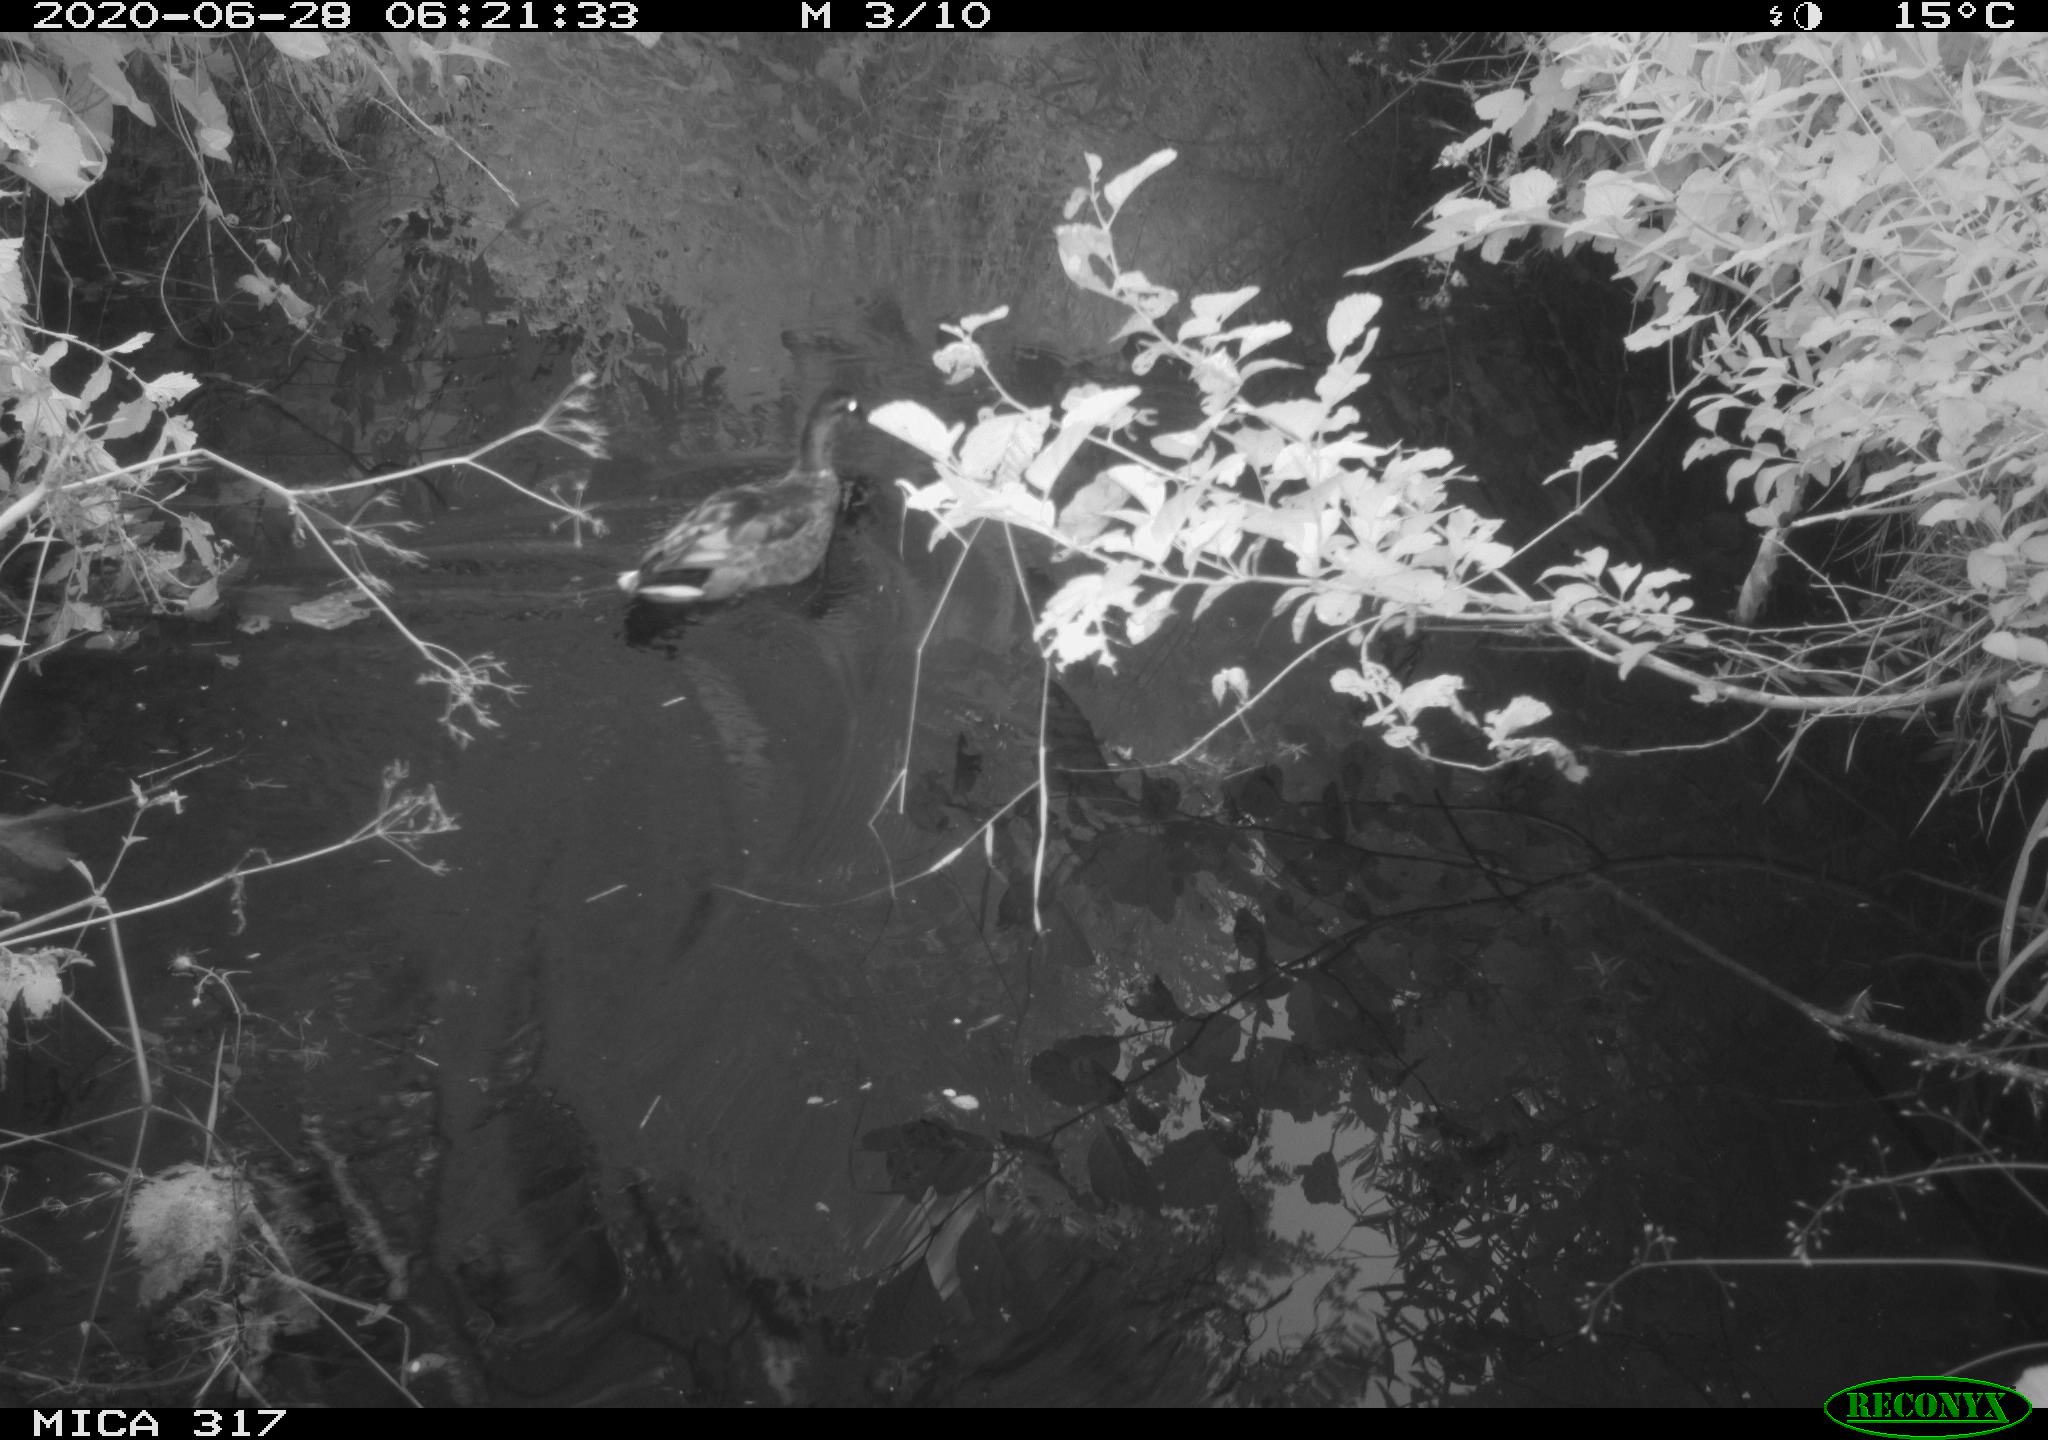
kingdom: Animalia
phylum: Chordata
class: Aves
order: Anseriformes
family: Anatidae
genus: Anas
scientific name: Anas platyrhynchos
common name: Mallard
